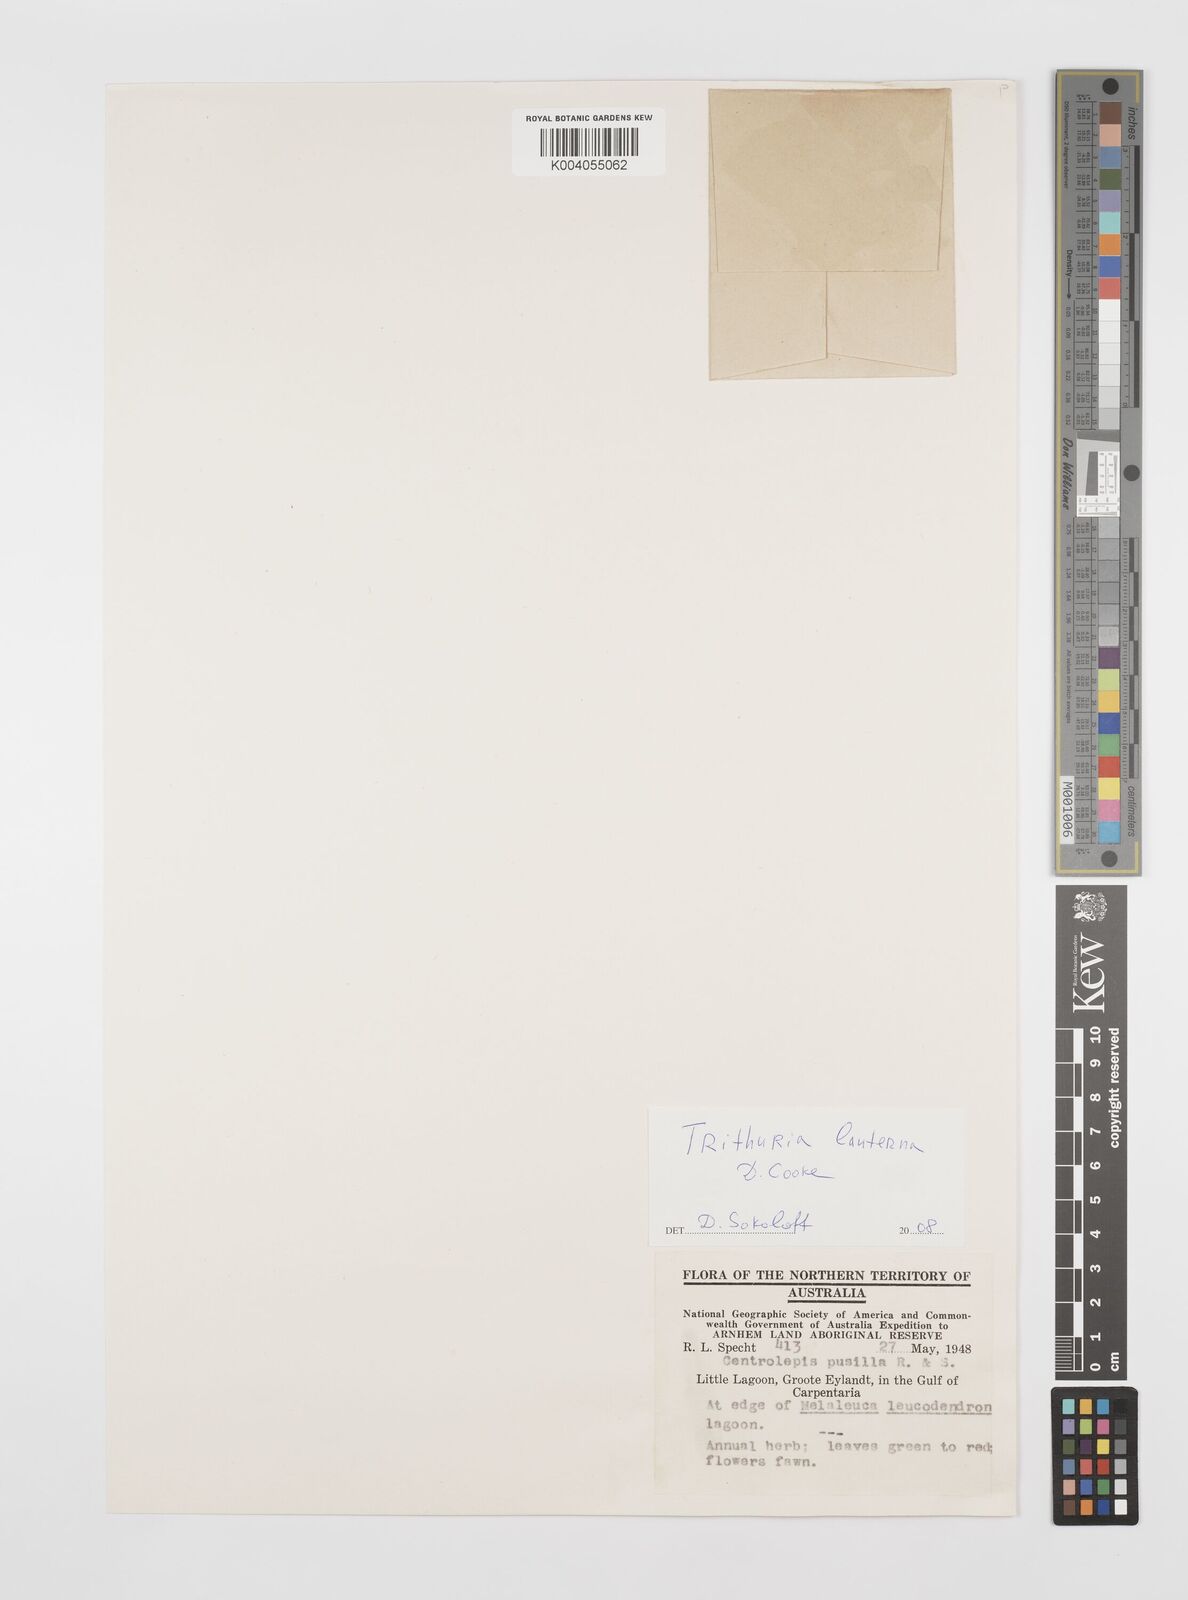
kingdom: Plantae
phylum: Tracheophyta
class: Magnoliopsida
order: Nymphaeales
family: Hydatellaceae
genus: Trithuria
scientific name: Trithuria lanterna
